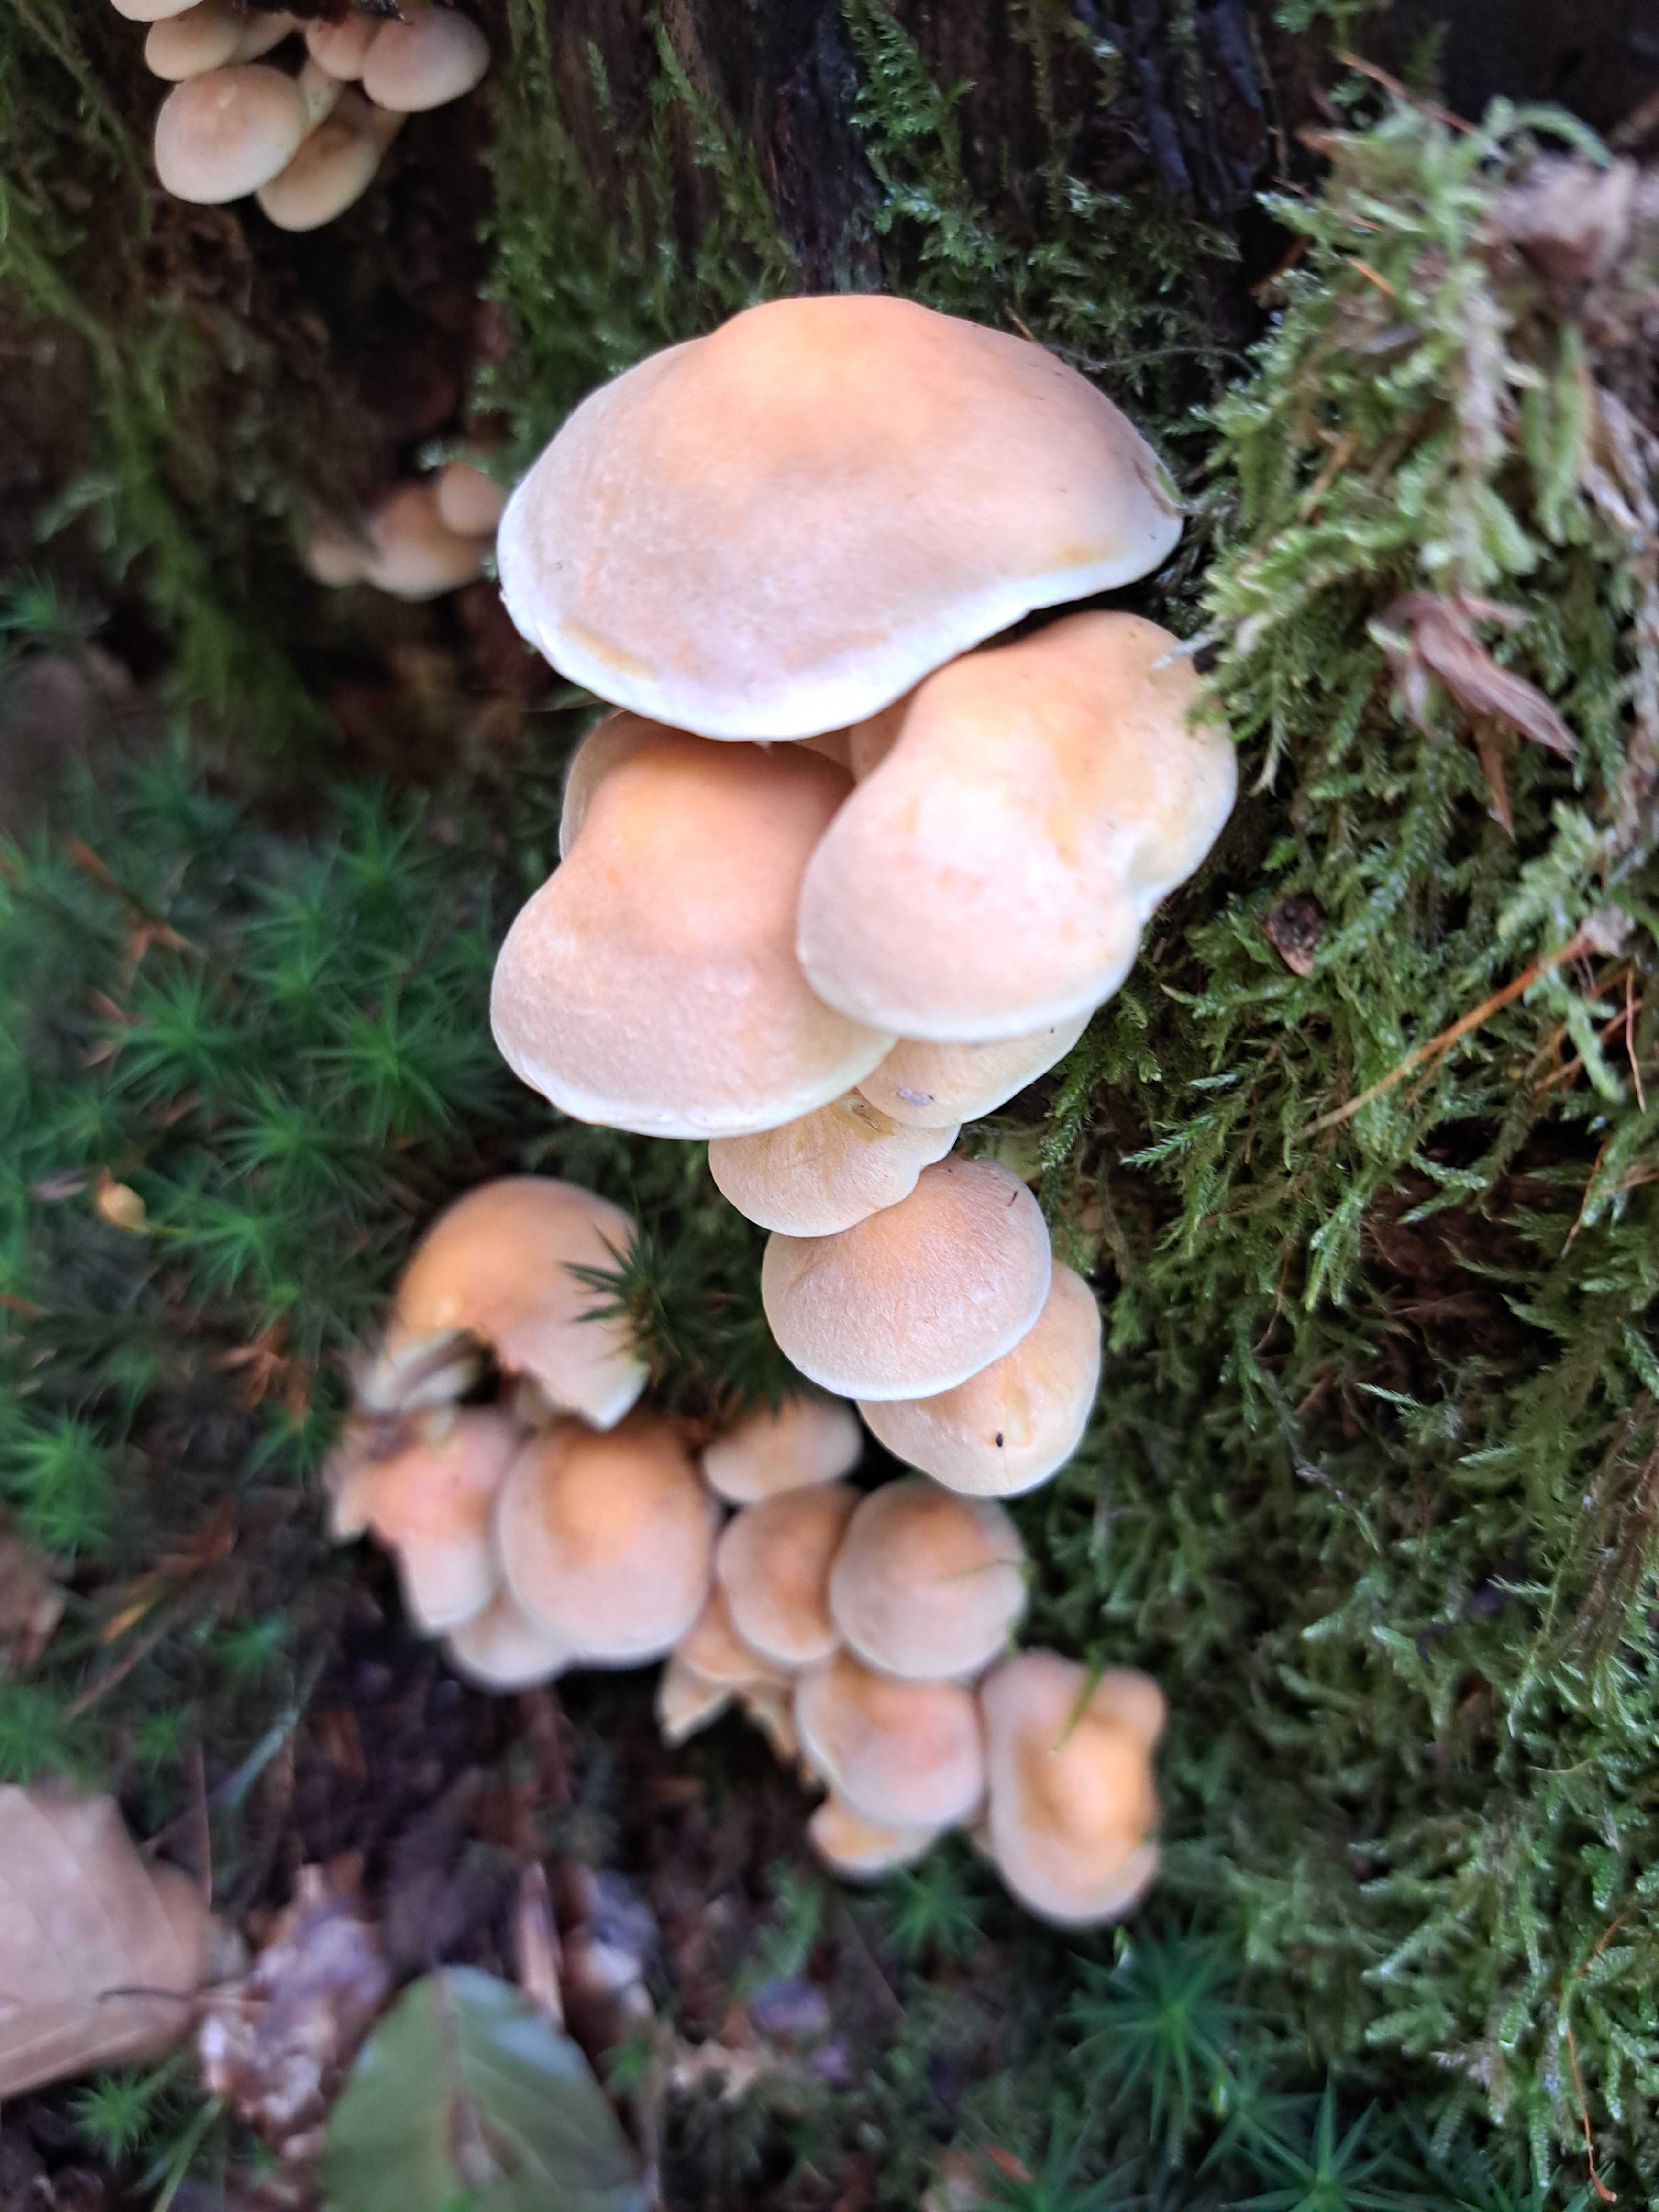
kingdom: Fungi
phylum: Basidiomycota
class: Agaricomycetes
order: Agaricales
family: Strophariaceae
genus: Hypholoma
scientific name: Hypholoma fasciculare
